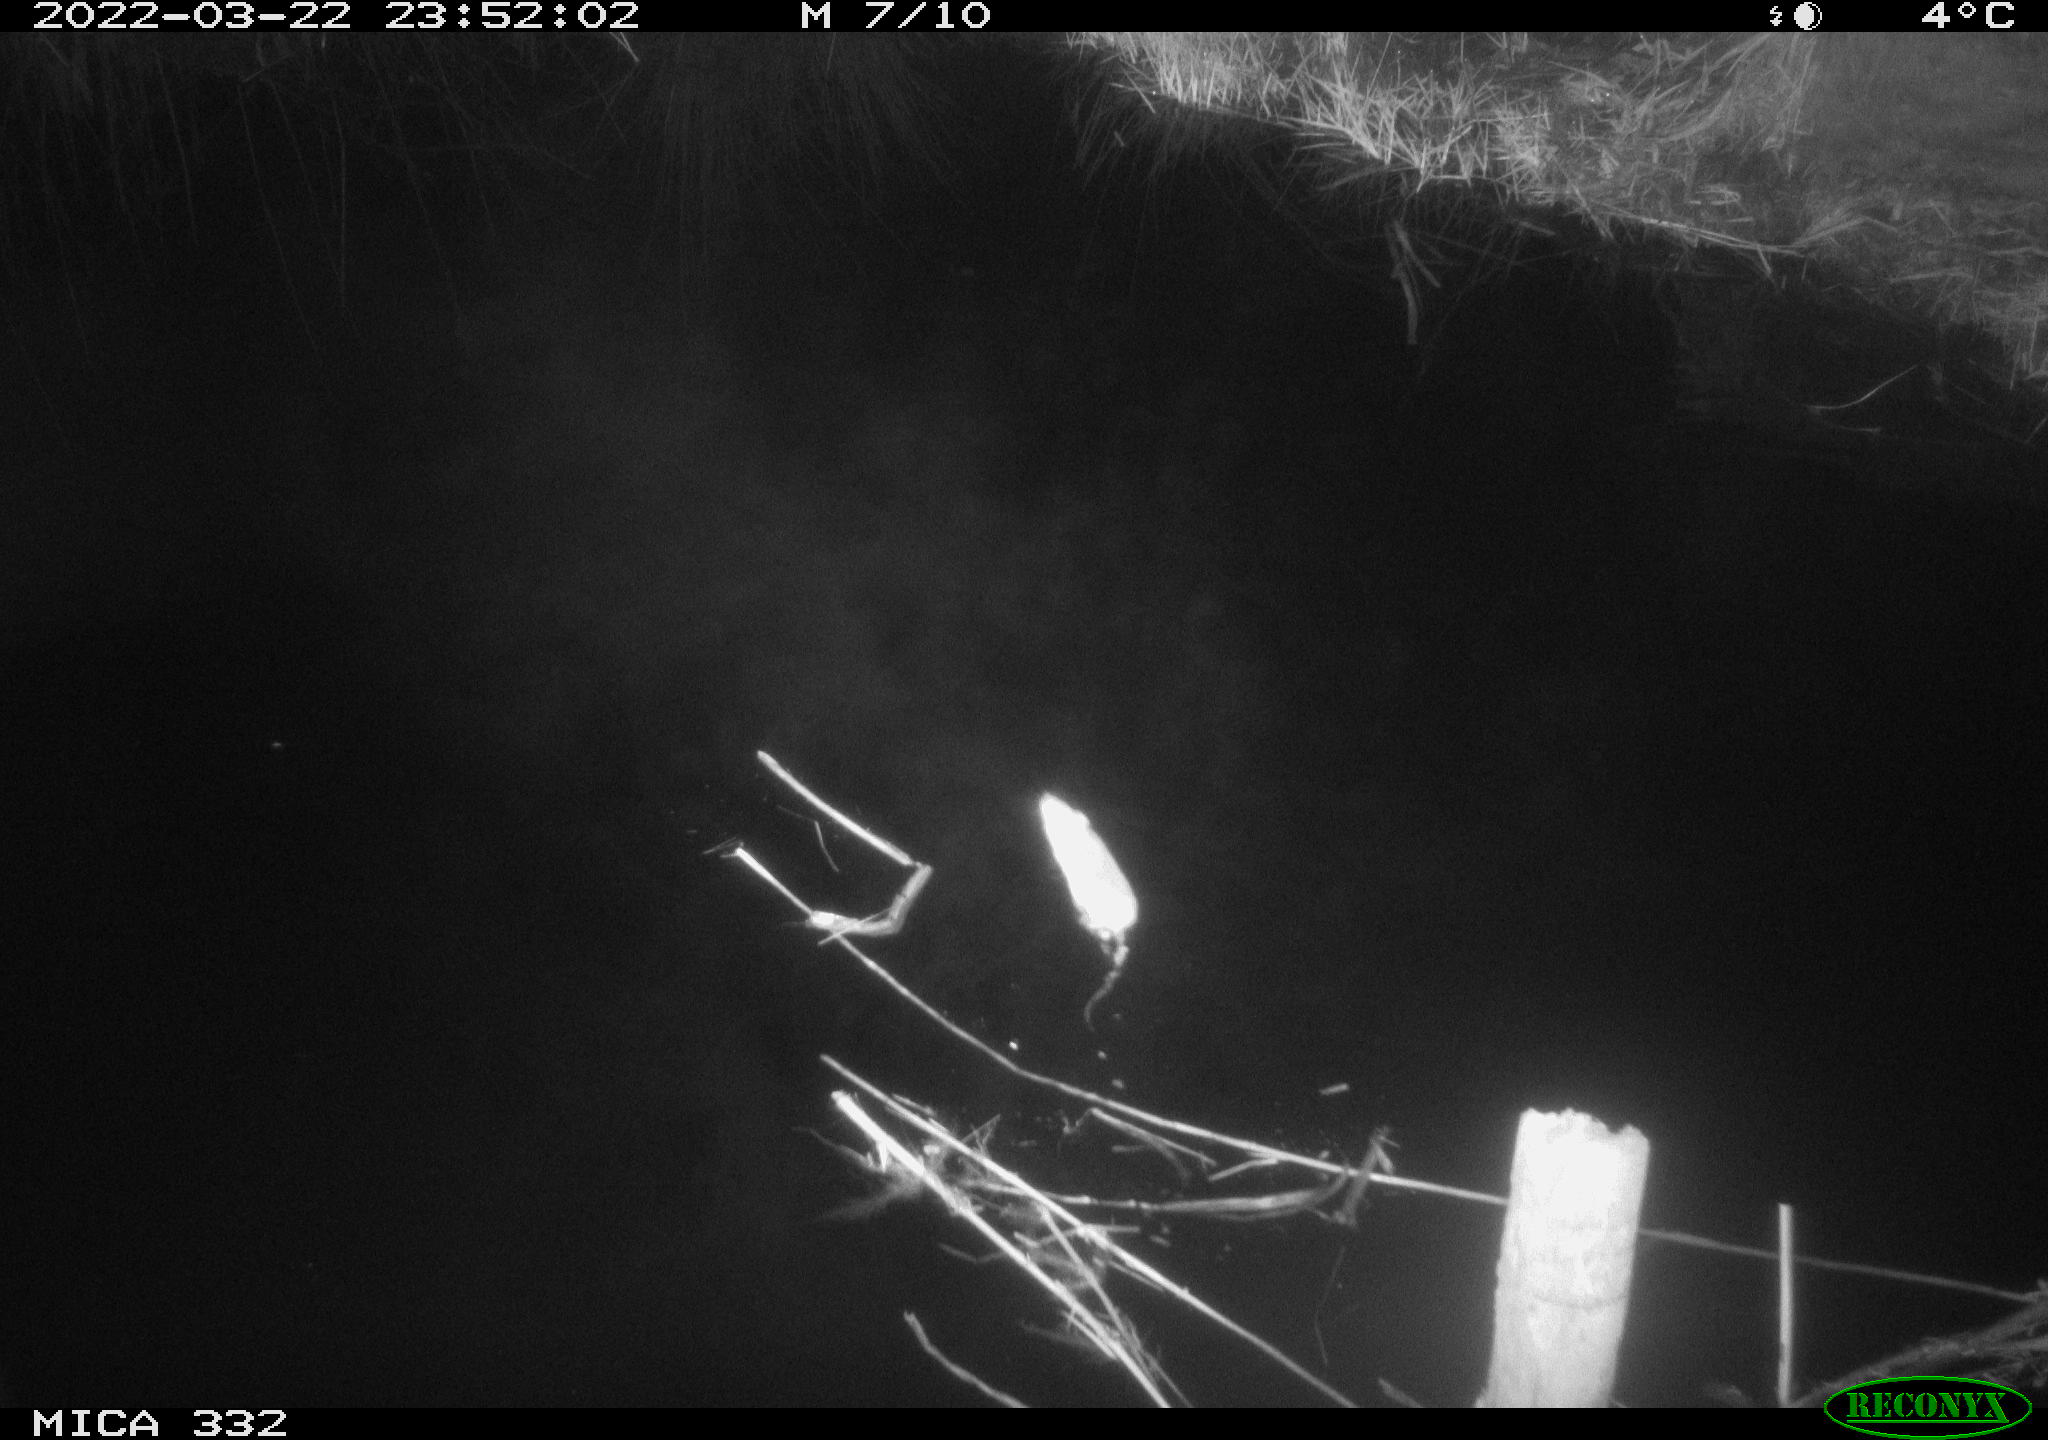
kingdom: Animalia
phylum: Chordata
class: Mammalia
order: Rodentia
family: Muridae
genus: Rattus
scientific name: Rattus norvegicus
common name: Brown rat
